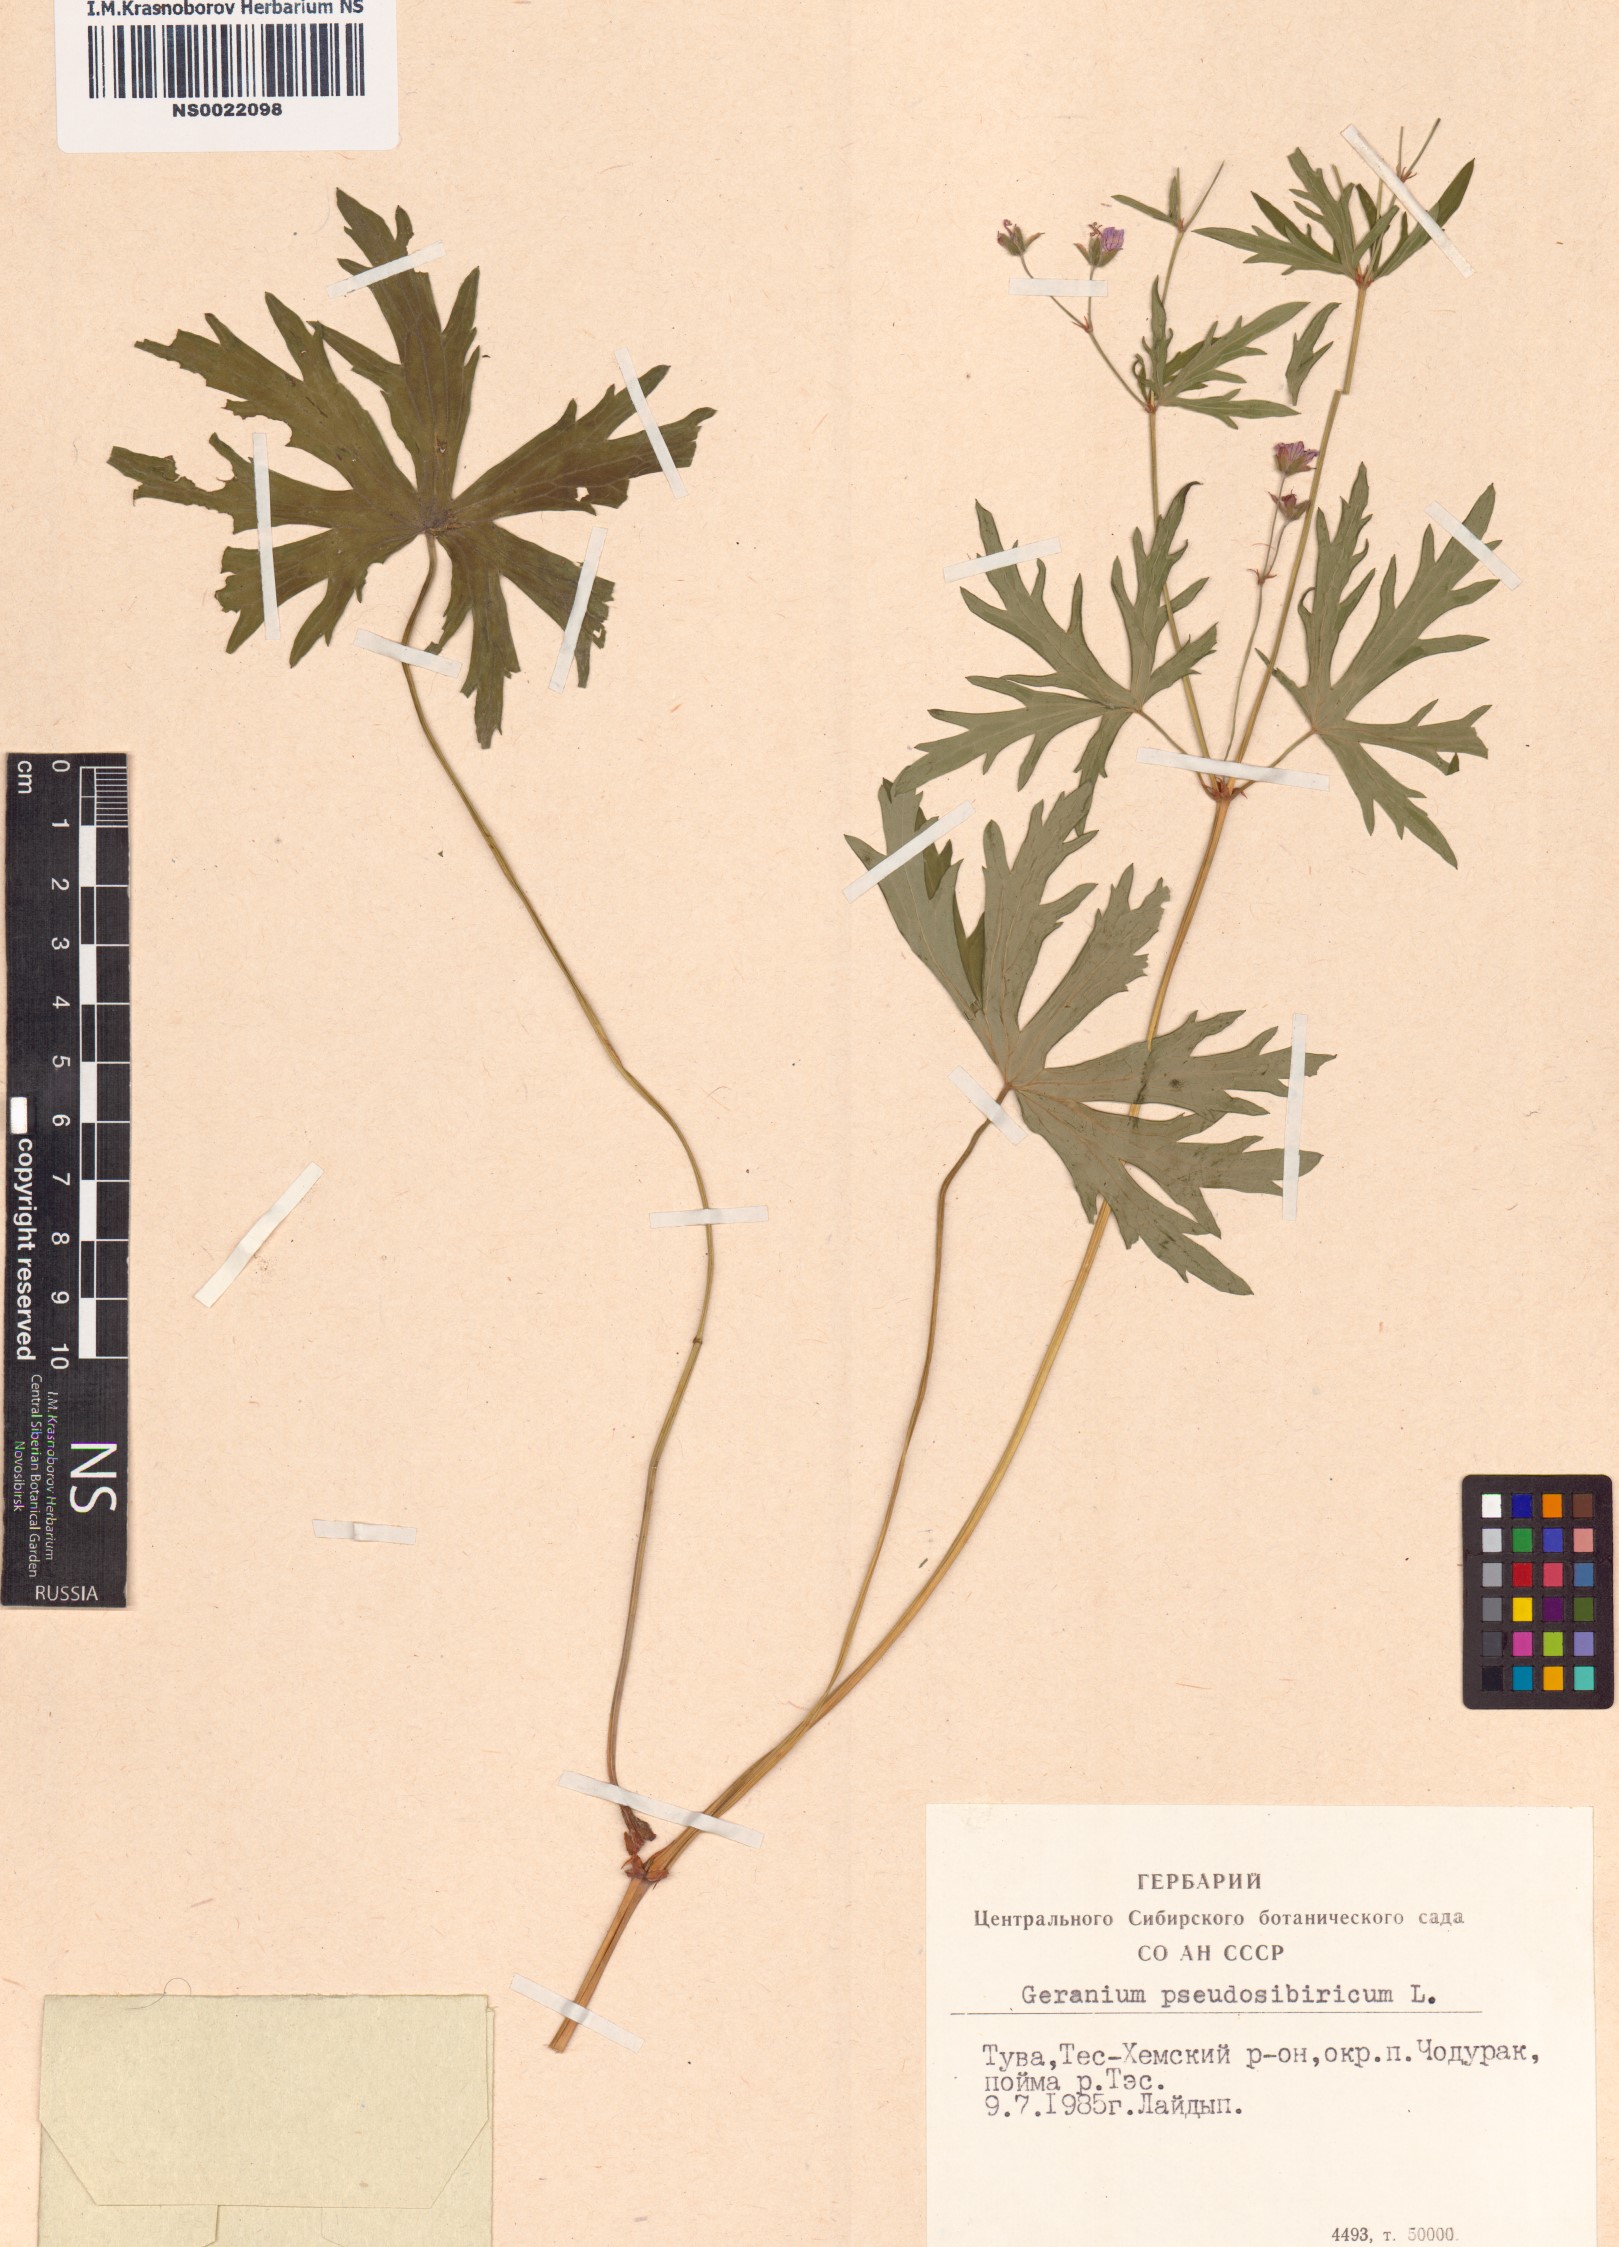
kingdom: Plantae
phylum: Tracheophyta
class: Magnoliopsida
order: Geraniales
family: Geraniaceae
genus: Geranium
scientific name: Geranium pseudosibiricum
